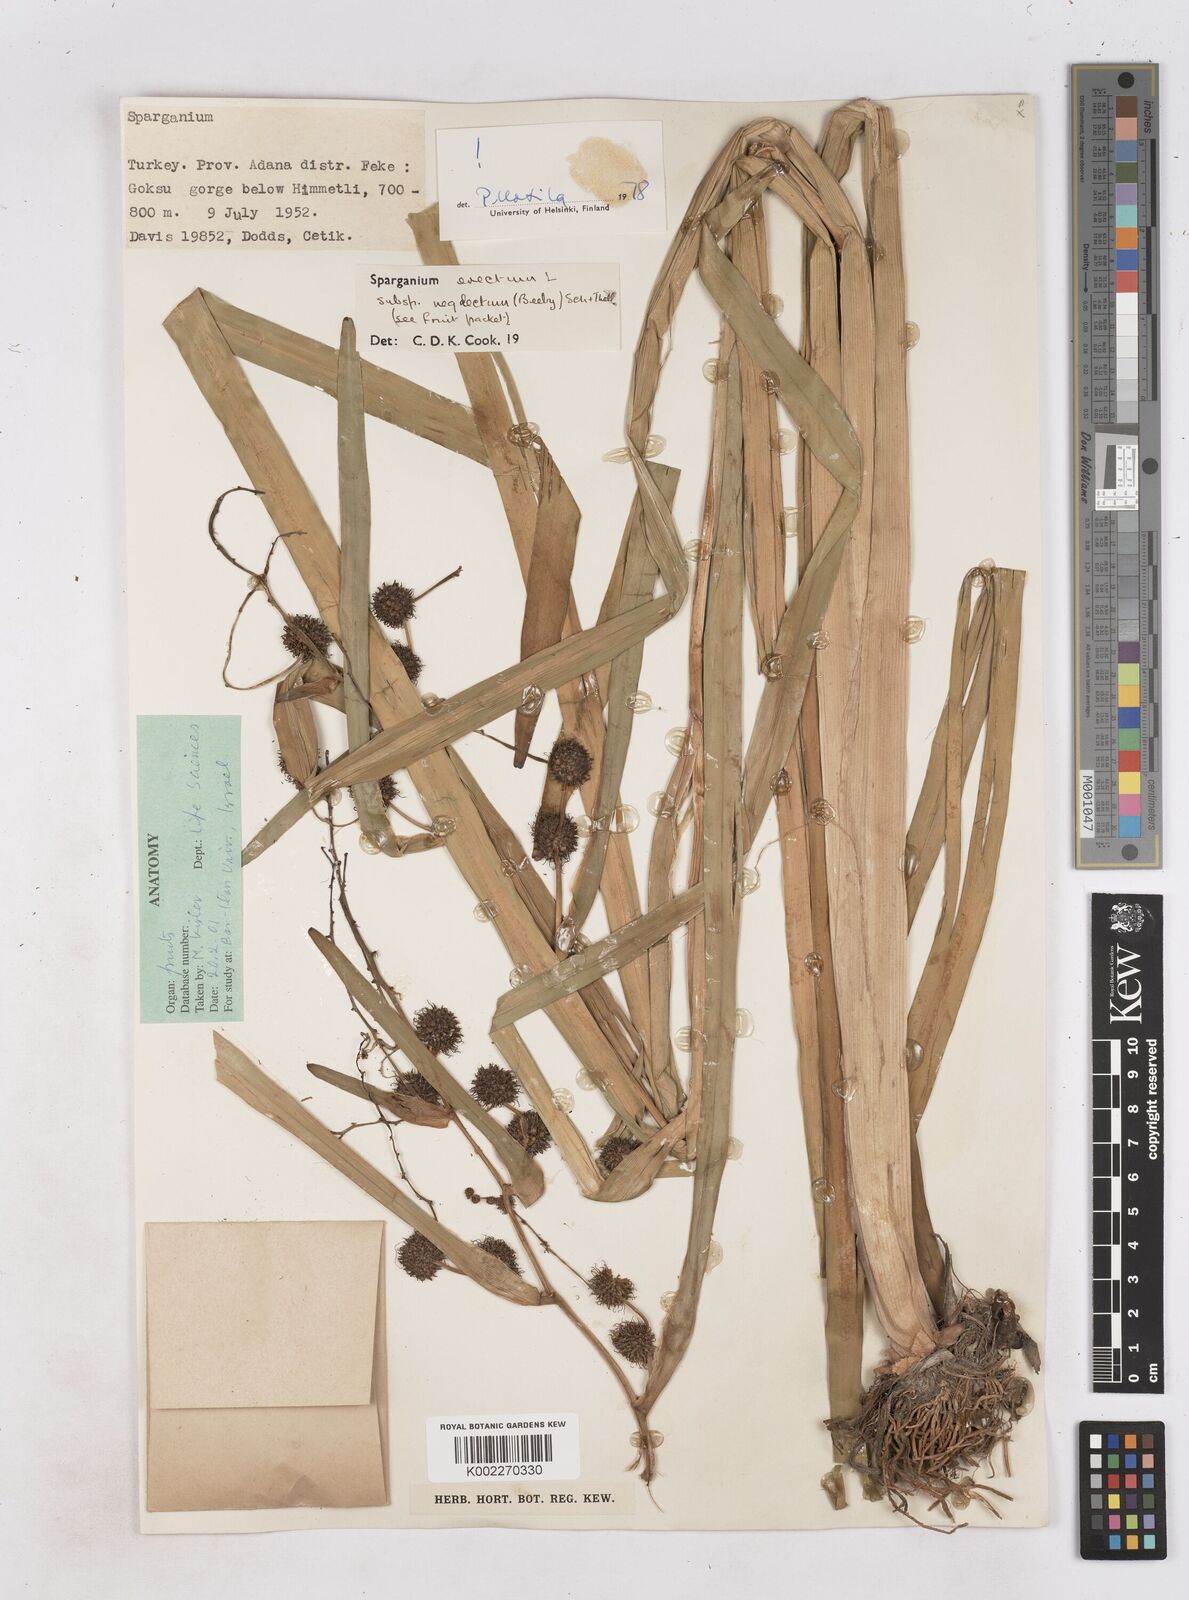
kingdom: Plantae
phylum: Tracheophyta
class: Liliopsida
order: Poales
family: Typhaceae
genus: Sparganium
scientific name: Sparganium erectum
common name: Branched bur-reed
